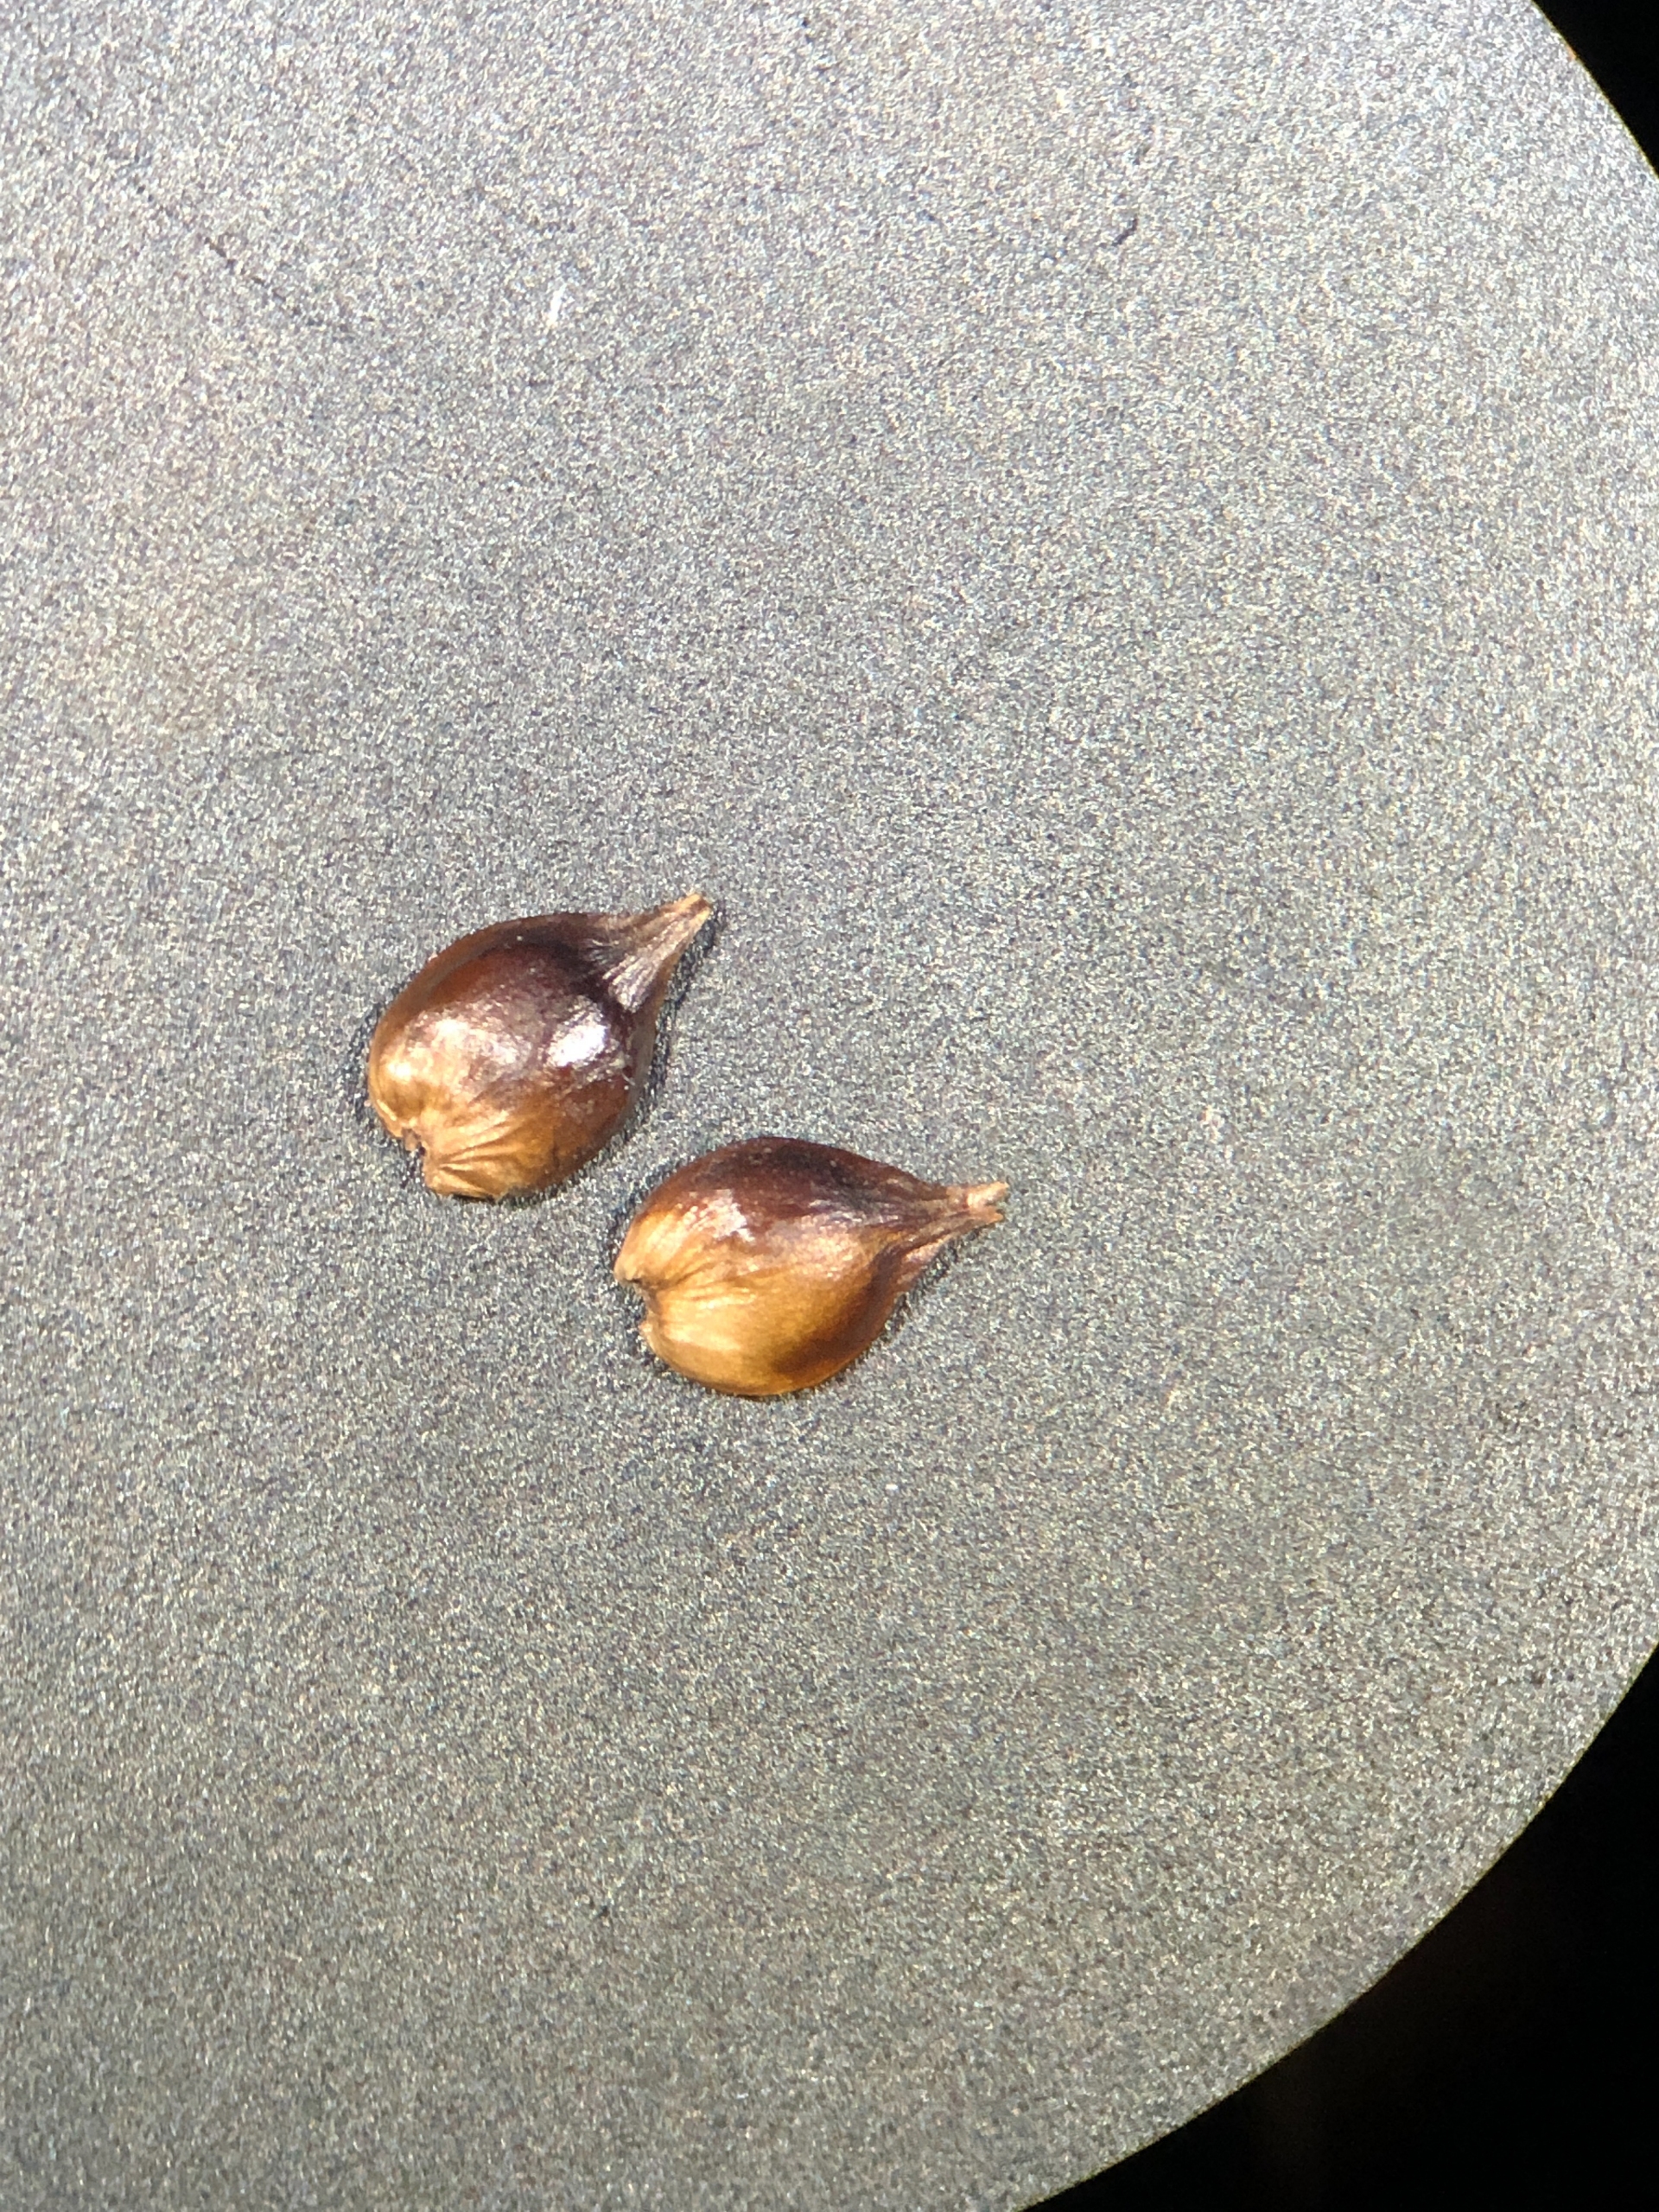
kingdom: Plantae
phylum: Tracheophyta
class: Liliopsida
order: Poales
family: Cyperaceae
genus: Carex
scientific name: Carex pairae
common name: Pigget star
